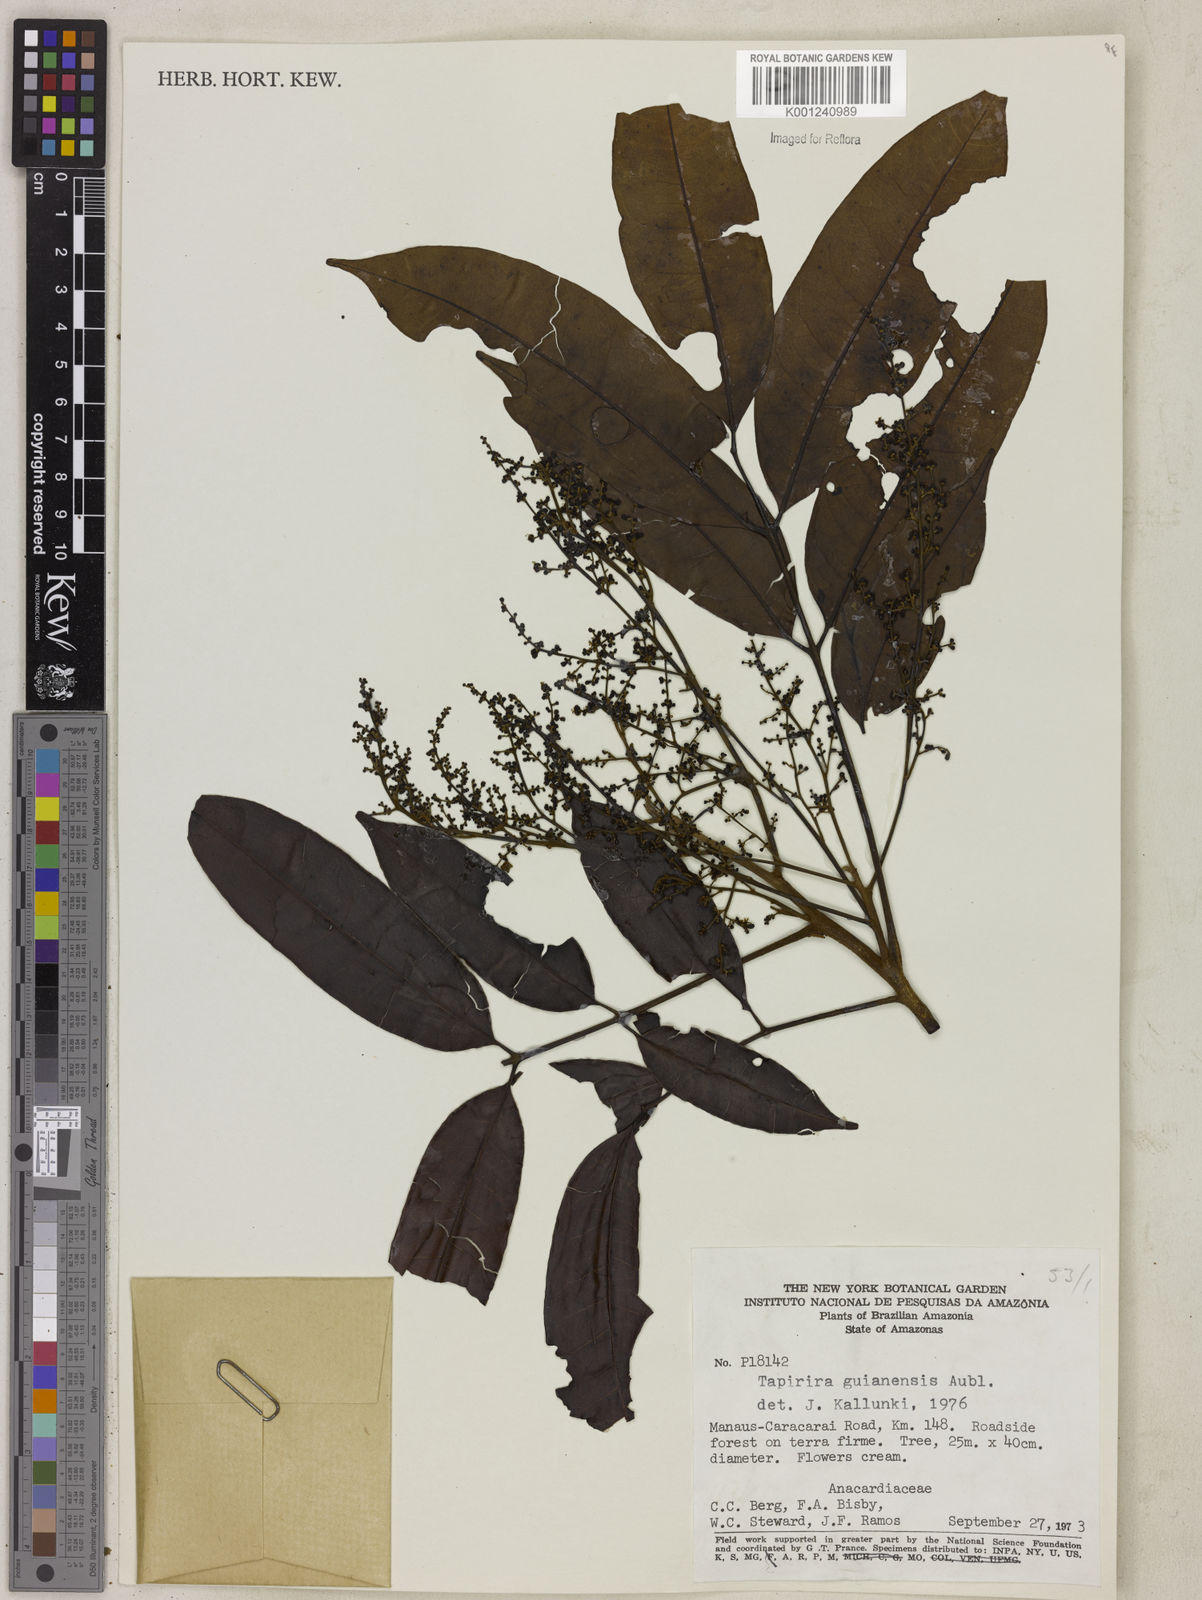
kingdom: Plantae
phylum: Tracheophyta
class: Magnoliopsida
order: Sapindales
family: Anacardiaceae
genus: Tapirira
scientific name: Tapirira guianensis
